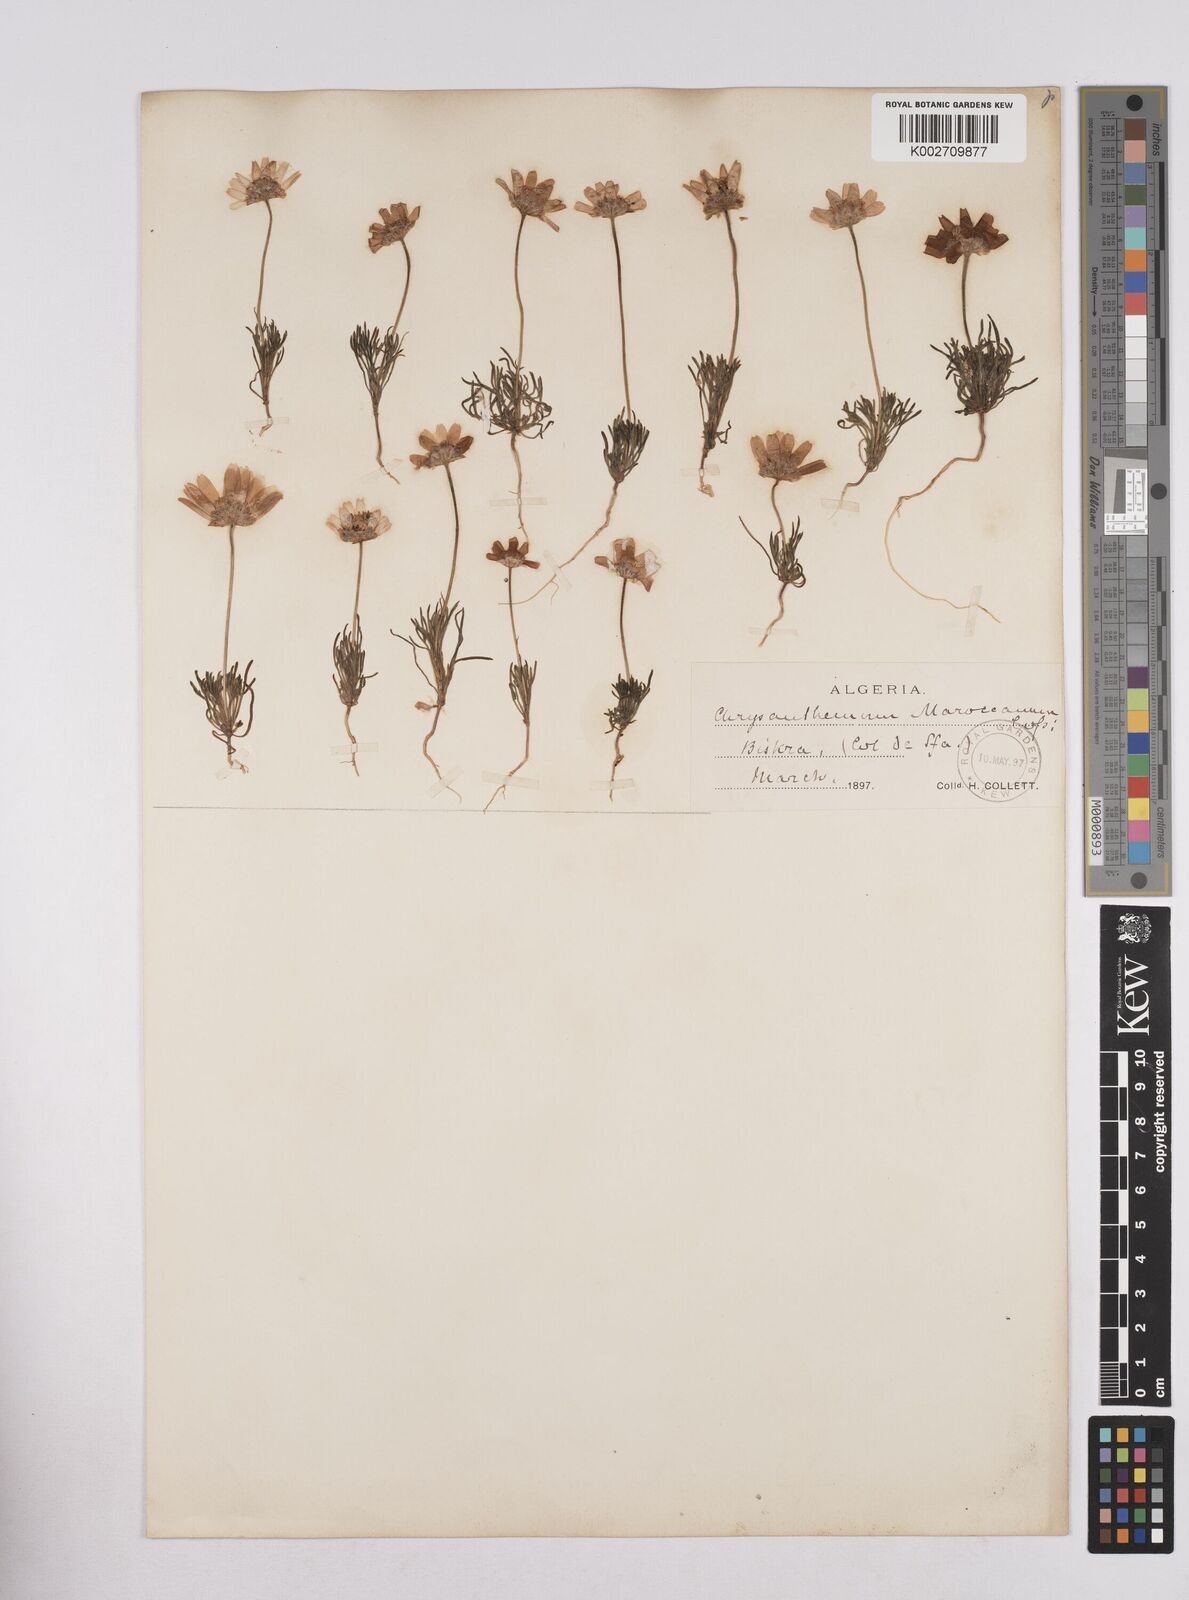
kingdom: Plantae
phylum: Tracheophyta
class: Magnoliopsida
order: Asterales
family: Asteraceae
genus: Rhodanthemum
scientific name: Rhodanthemum maroccanum
